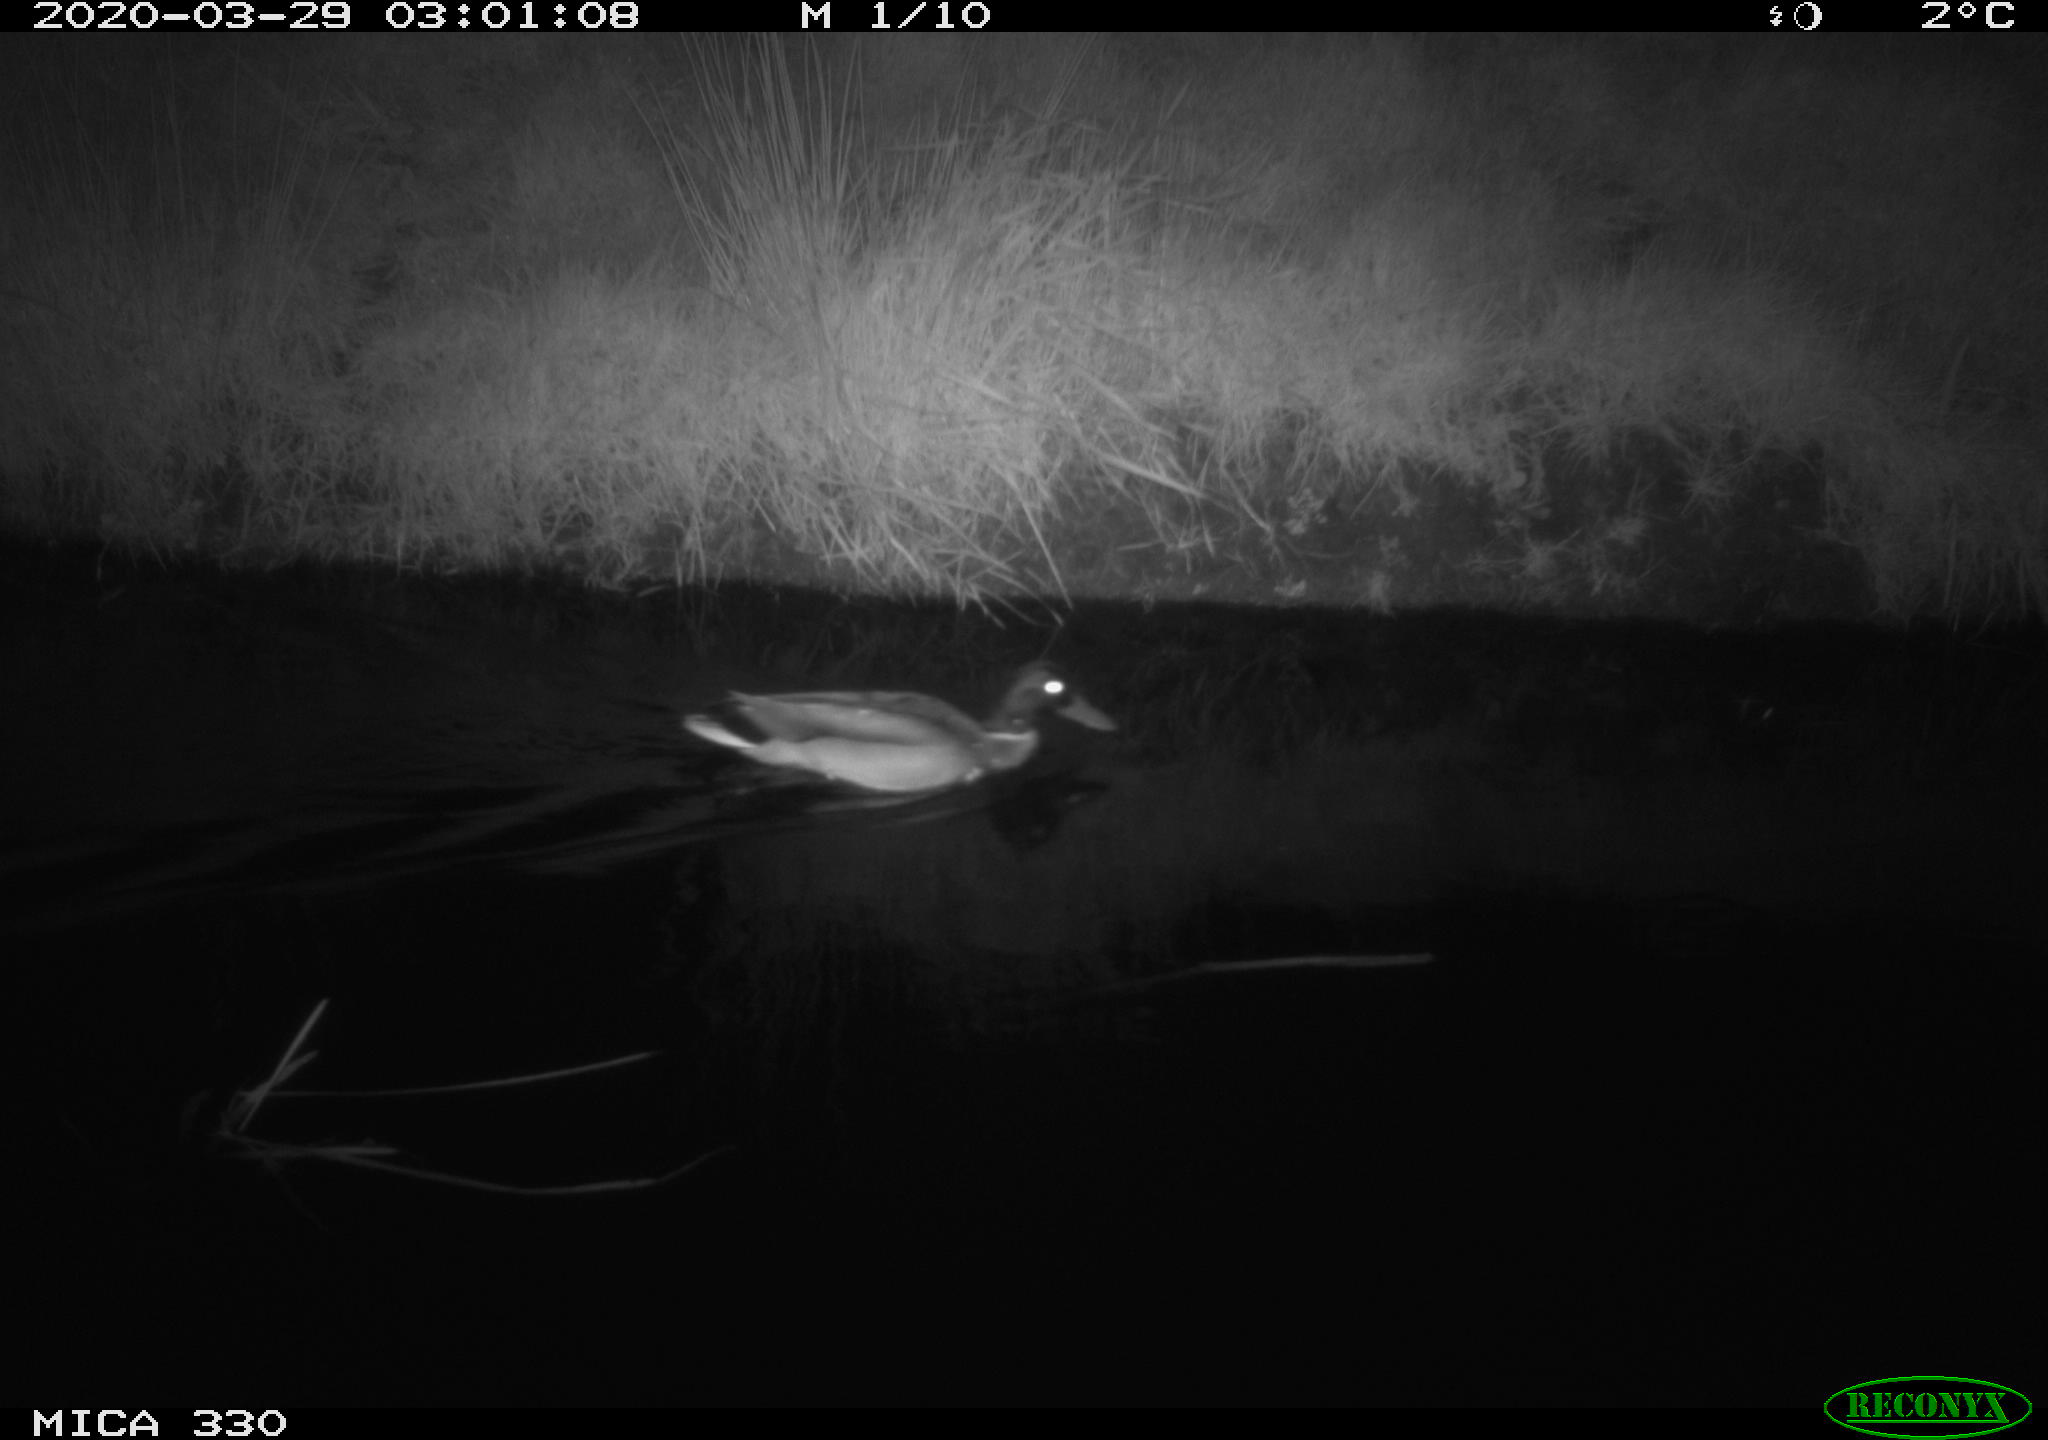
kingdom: Animalia
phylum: Chordata
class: Aves
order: Anseriformes
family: Anatidae
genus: Anas
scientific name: Anas platyrhynchos
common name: Mallard
